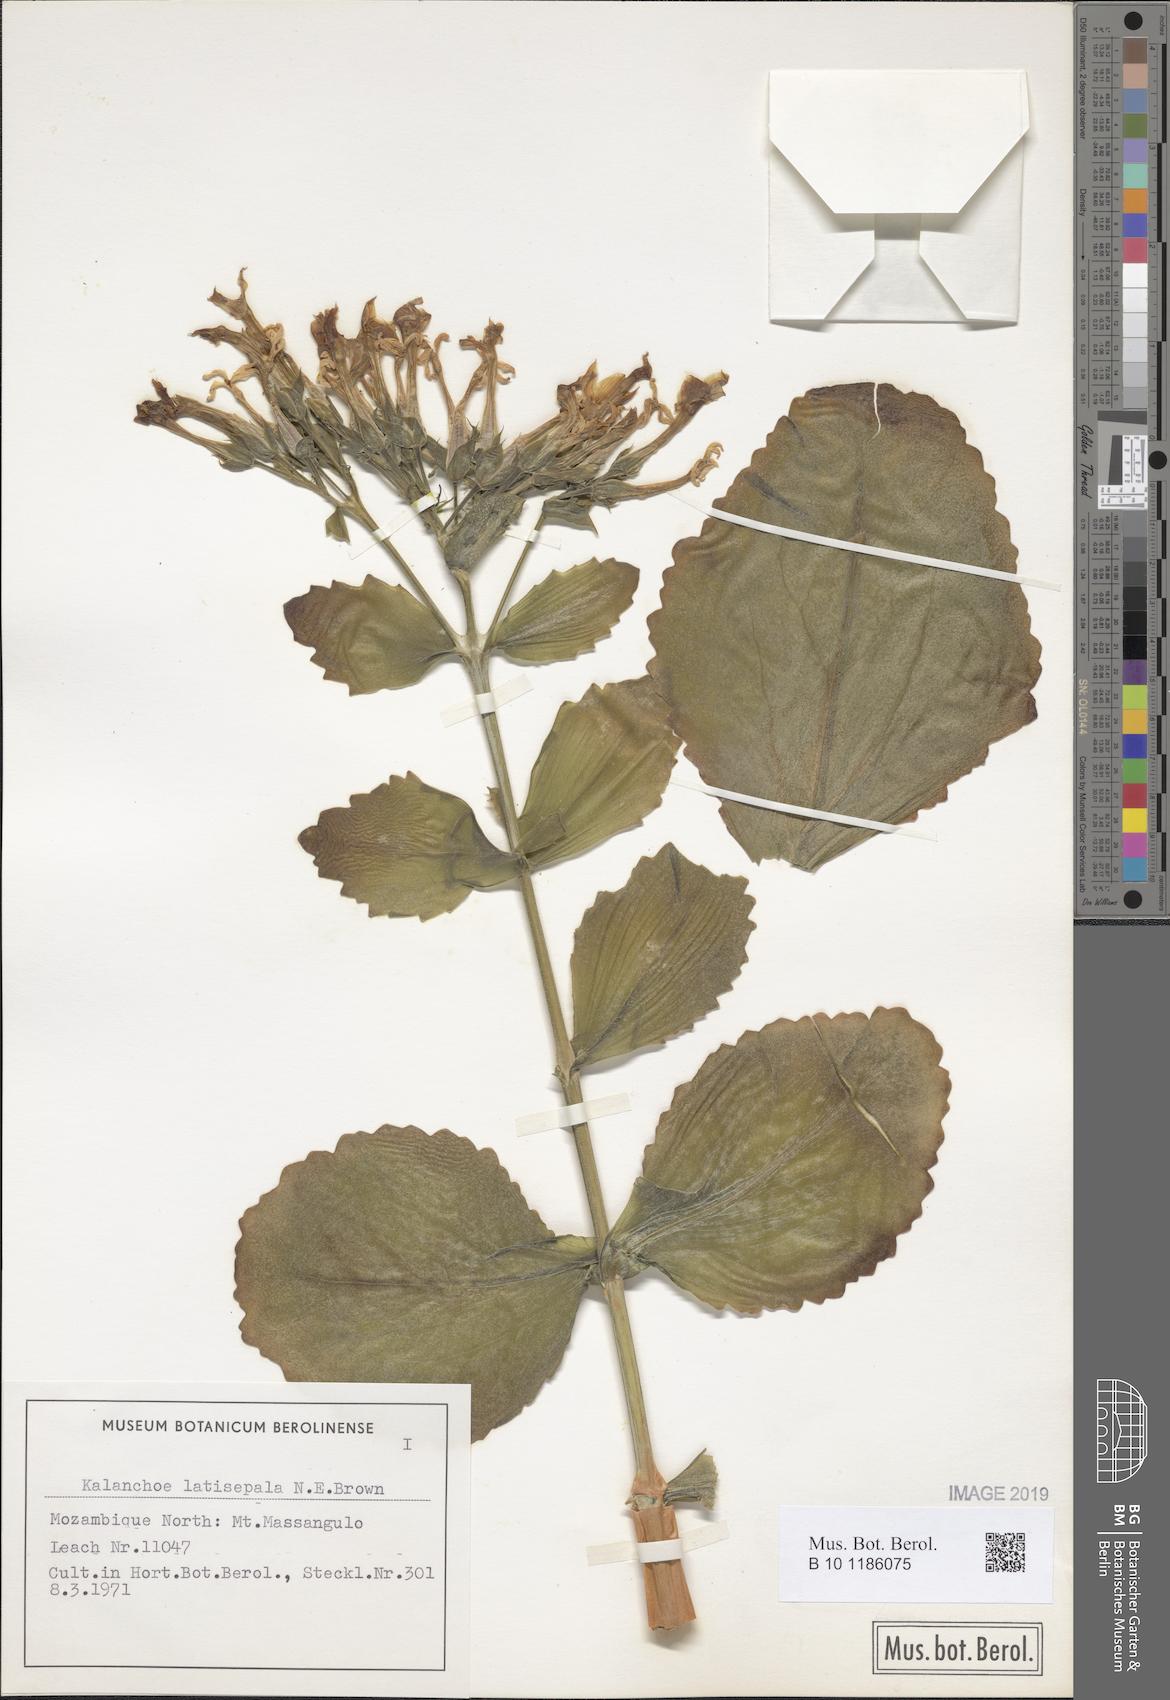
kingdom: Plantae
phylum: Tracheophyta
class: Magnoliopsida
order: Saxifragales
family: Crassulaceae
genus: Kalanchoe
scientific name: Kalanchoe latisepala
